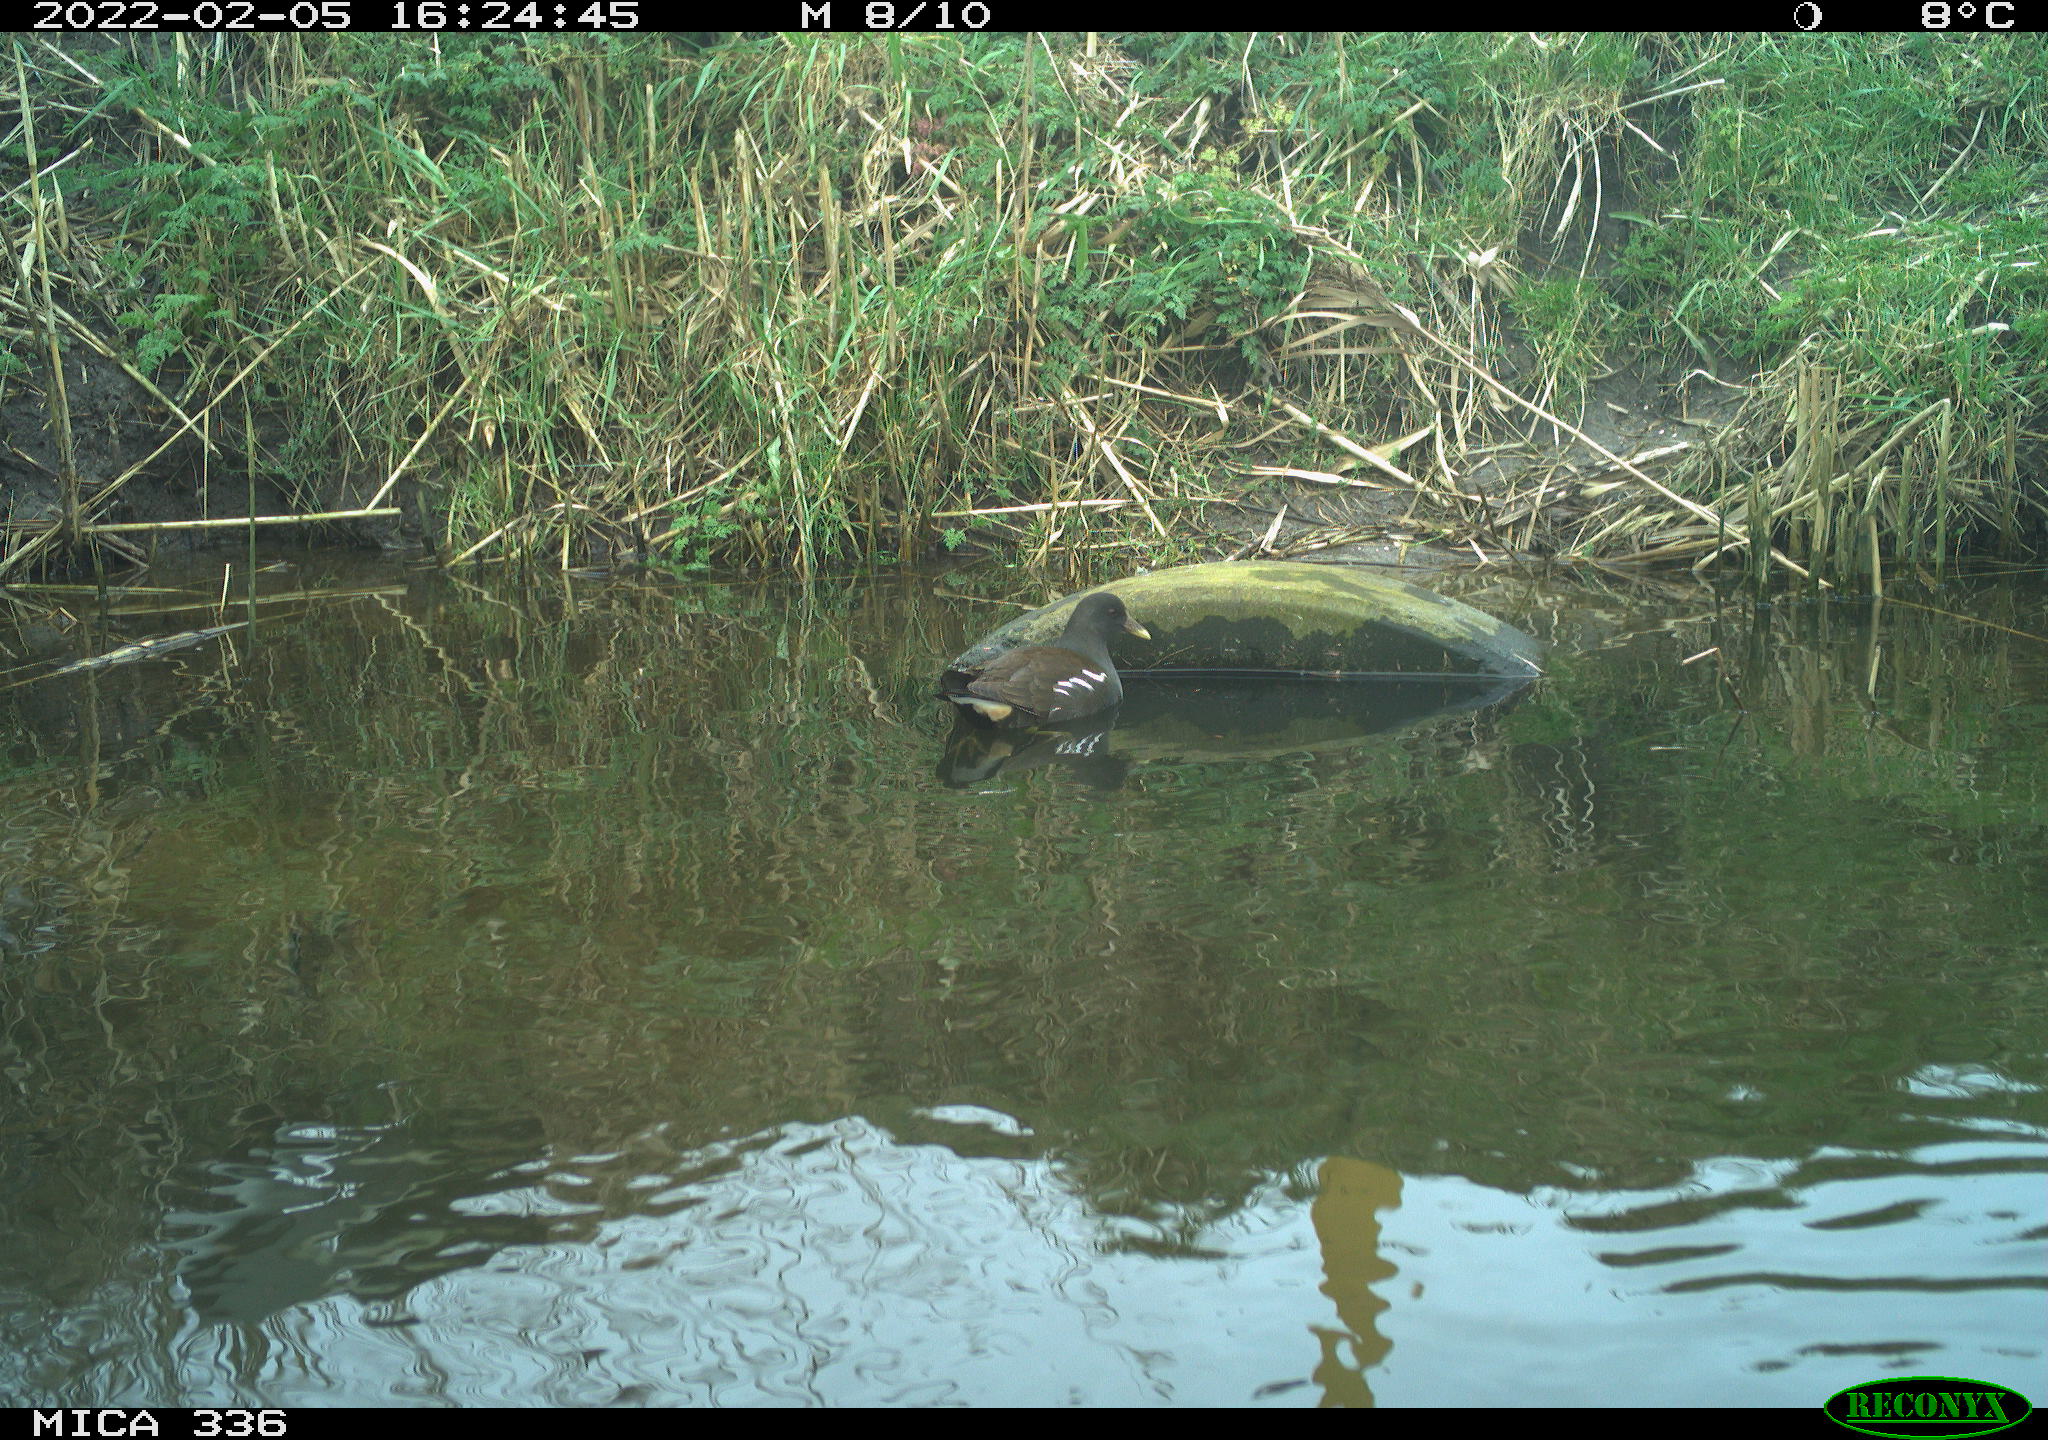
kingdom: Animalia
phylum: Chordata
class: Aves
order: Gruiformes
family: Rallidae
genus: Gallinula
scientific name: Gallinula chloropus
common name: Common moorhen
